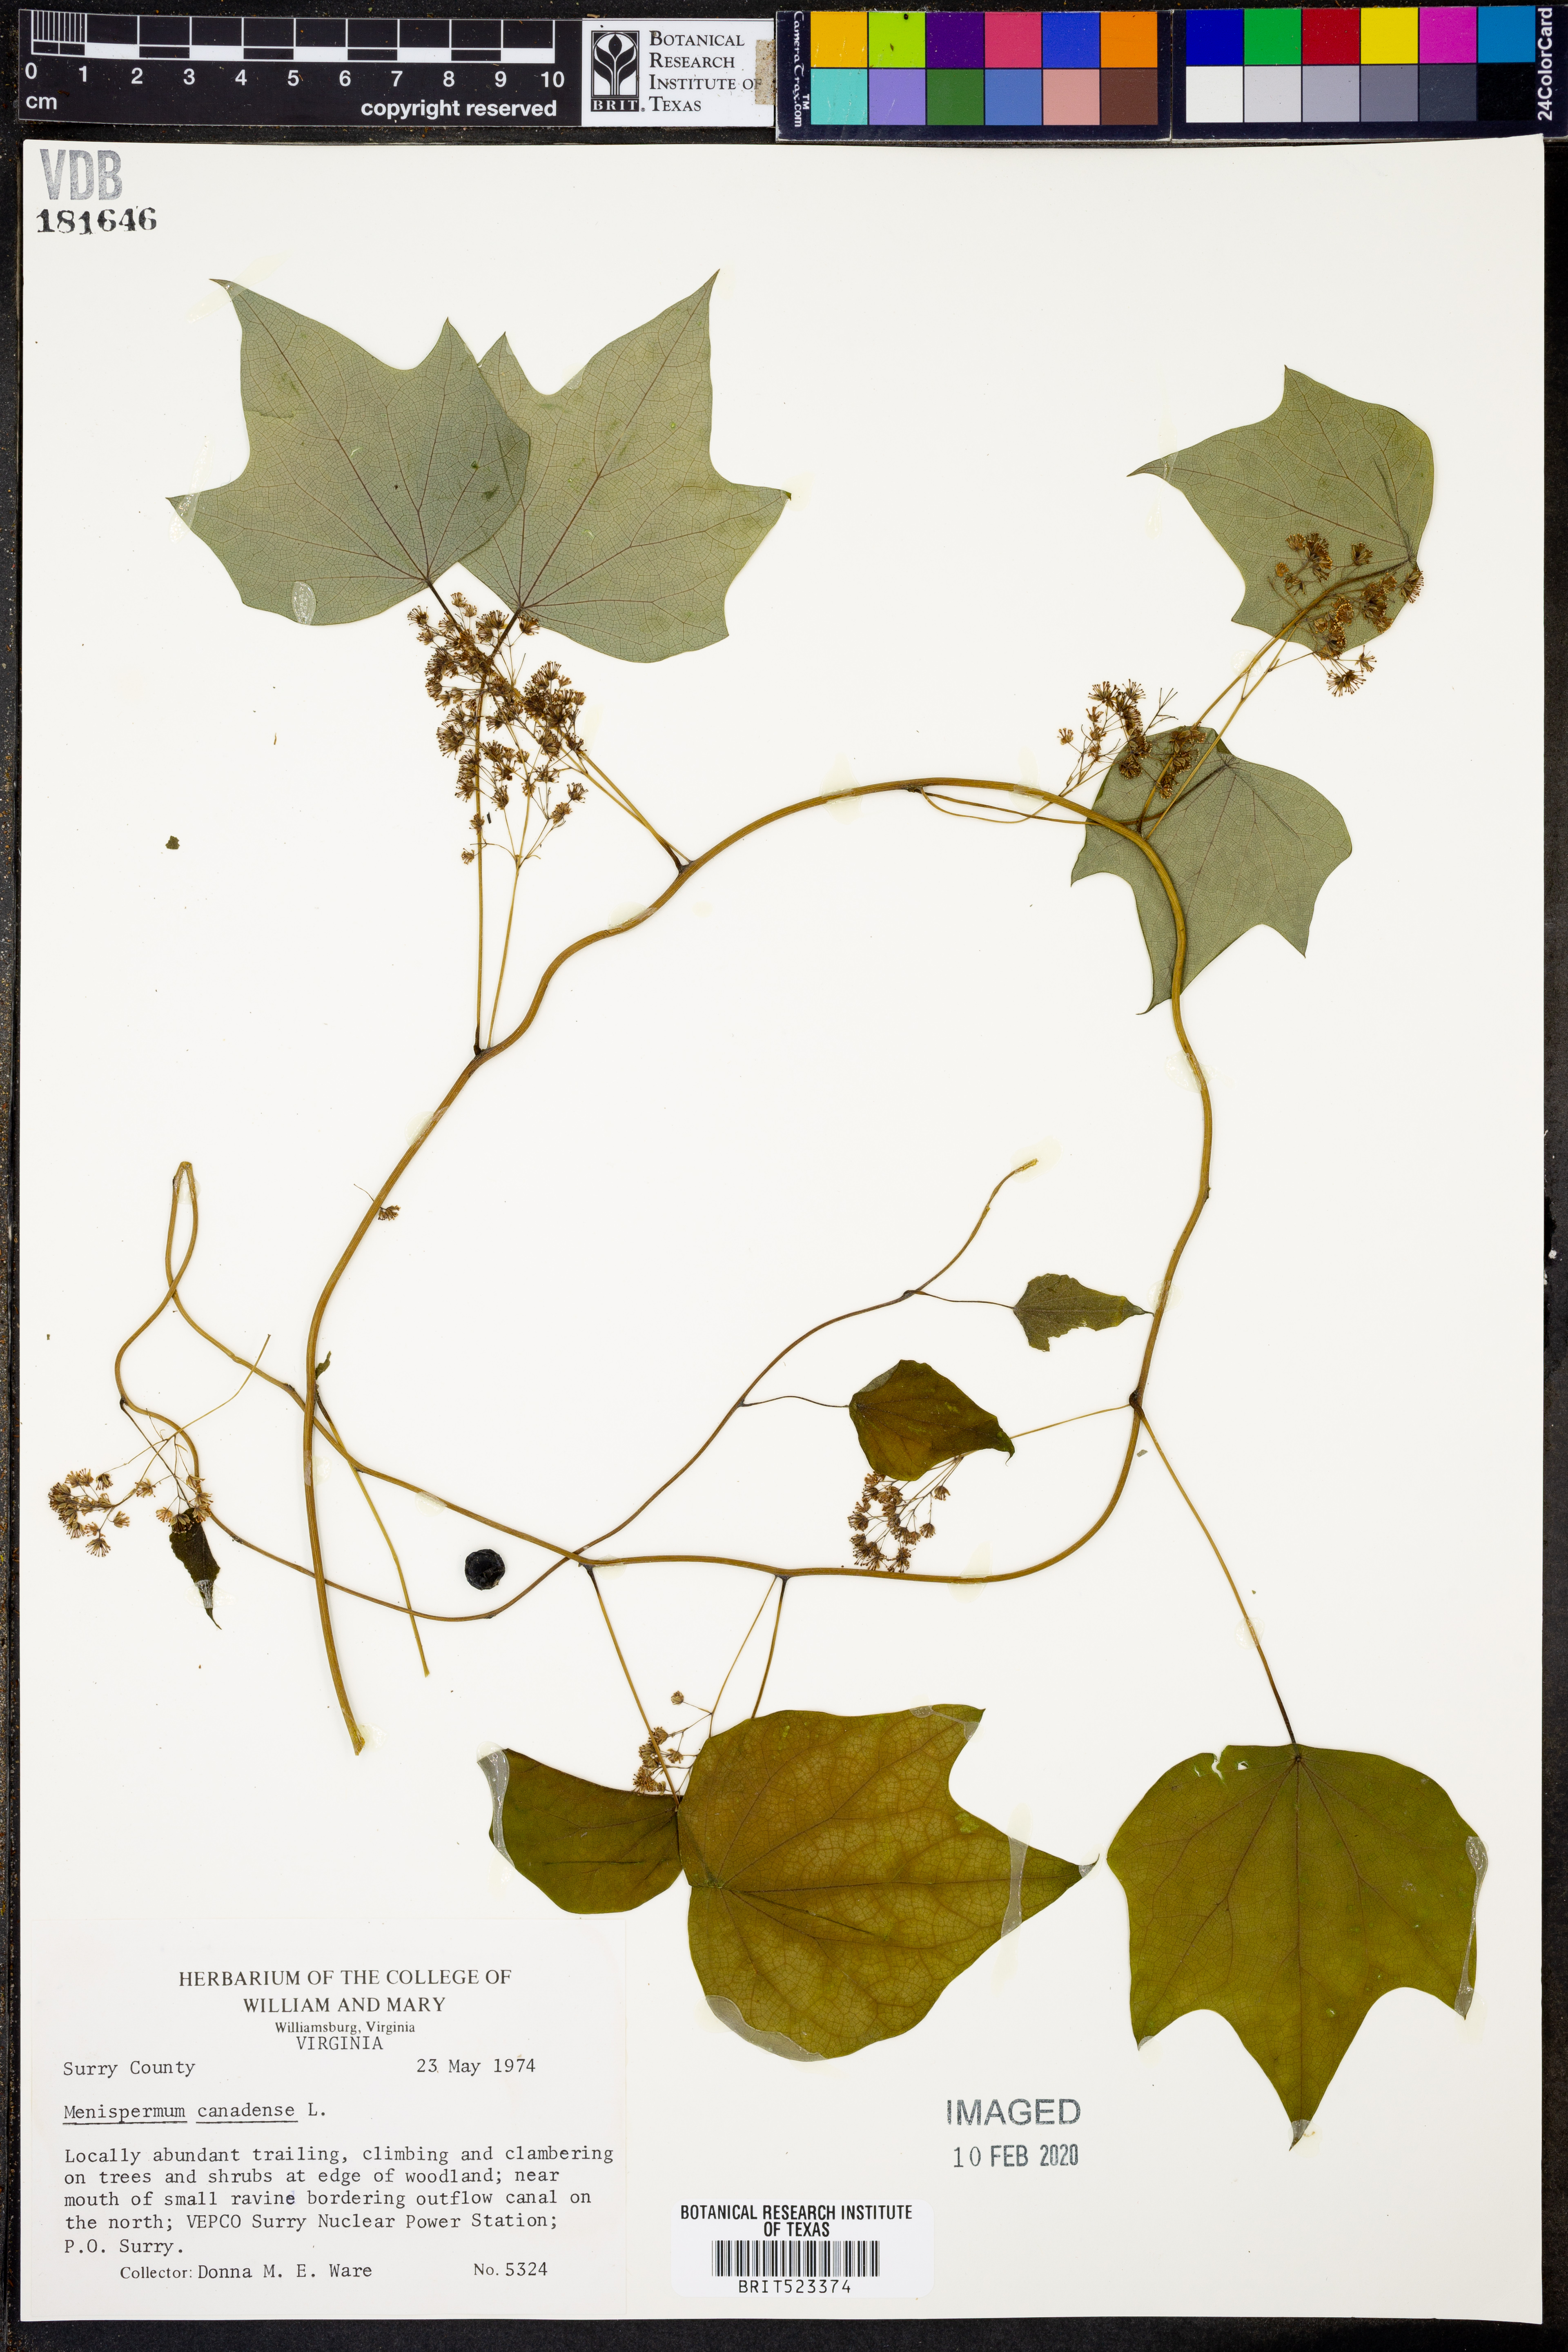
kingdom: Plantae
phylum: Tracheophyta
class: Magnoliopsida
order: Ranunculales
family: Menispermaceae
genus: Menispermum
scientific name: Menispermum canadense
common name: Moonseed
